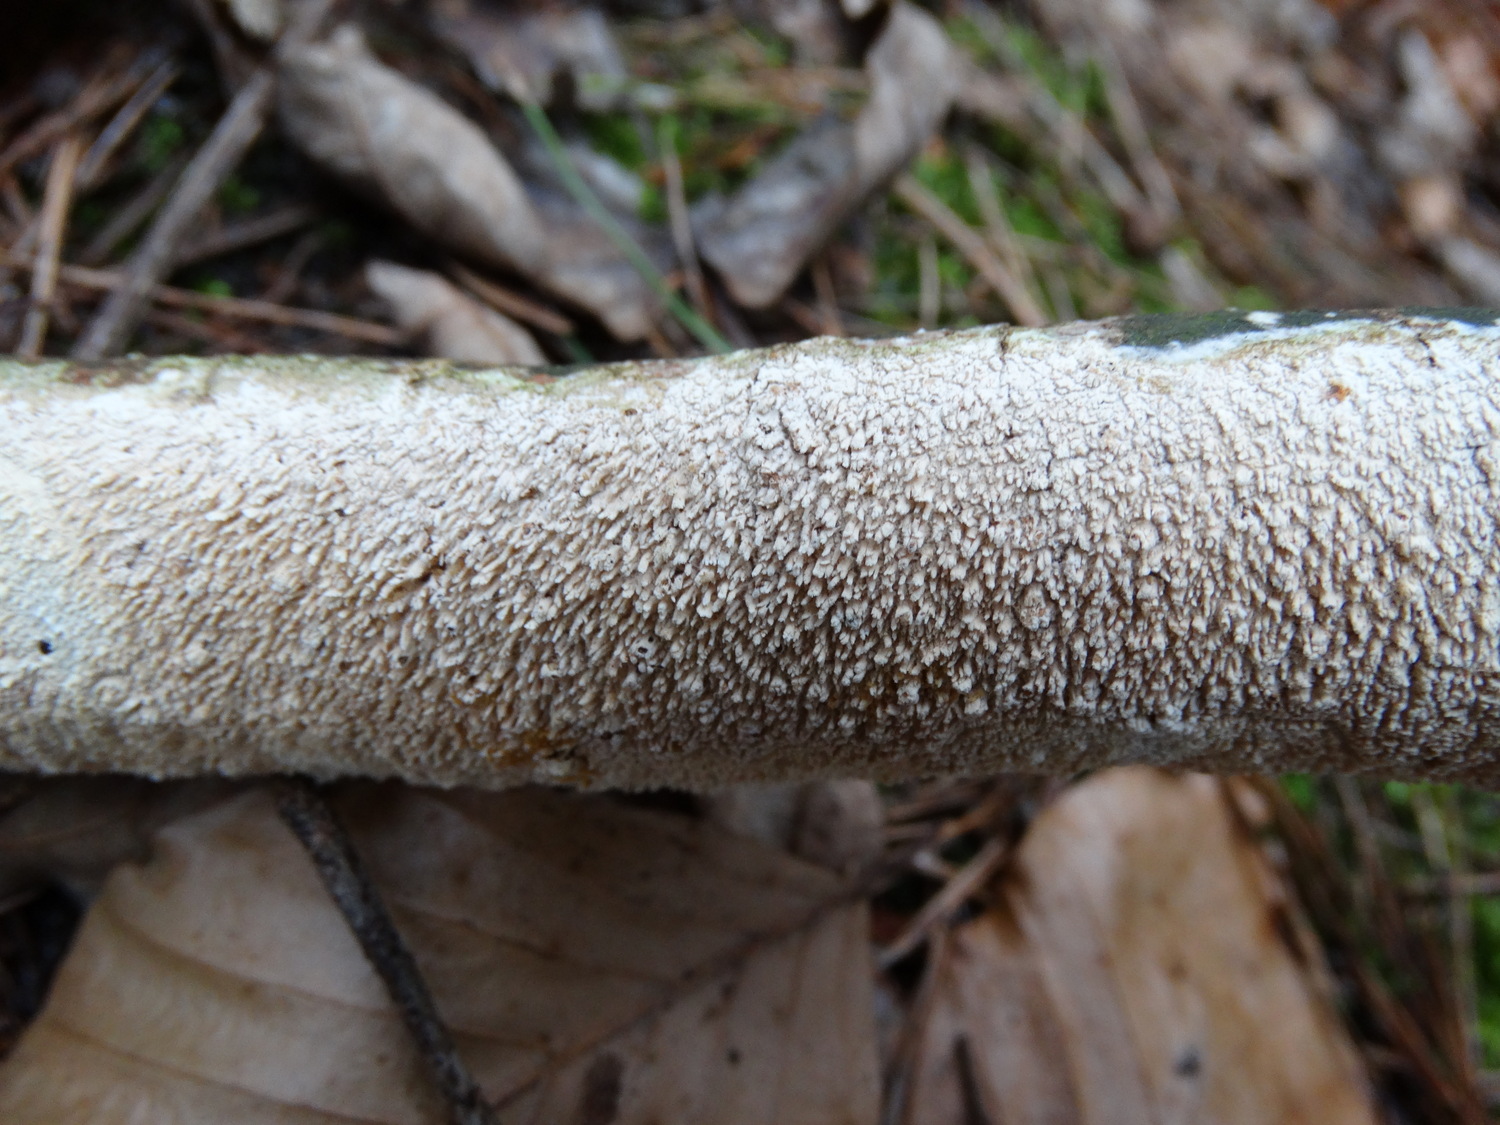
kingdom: Fungi
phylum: Basidiomycota
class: Agaricomycetes
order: Corticiales
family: Corticiaceae
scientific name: Corticiaceae
